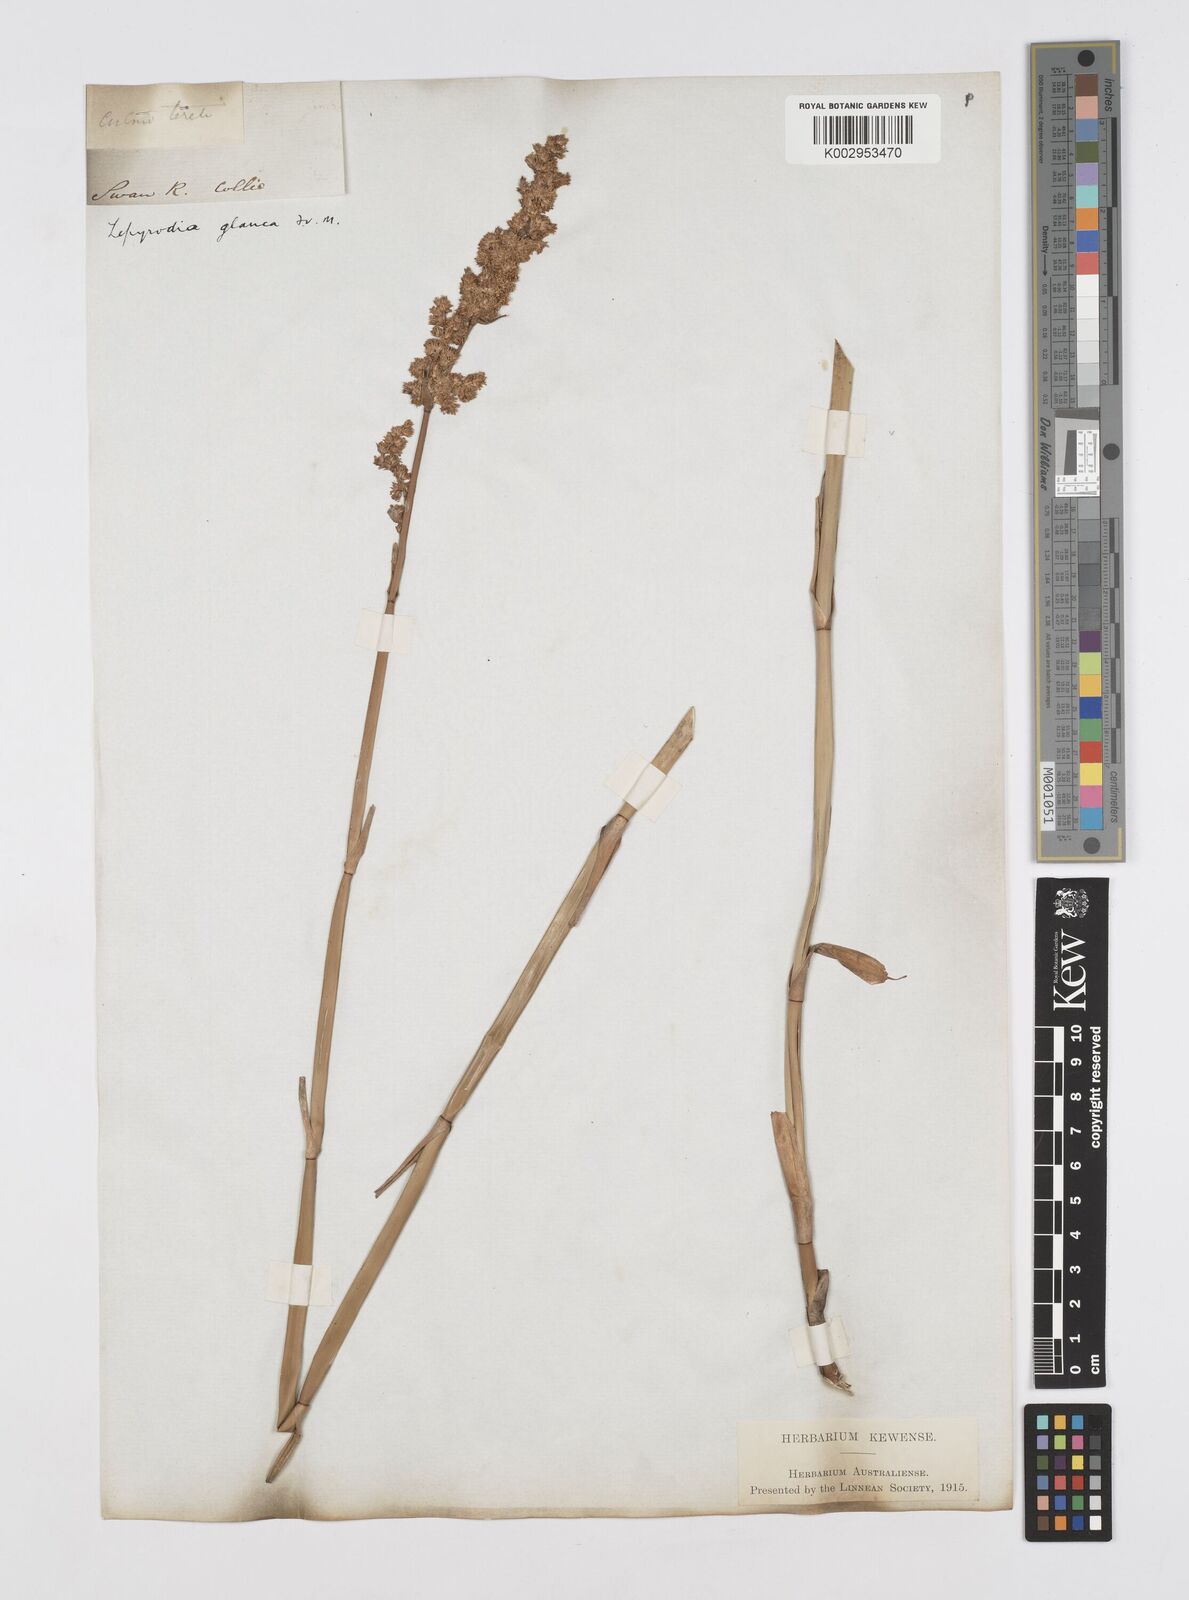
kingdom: Plantae
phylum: Tracheophyta
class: Liliopsida
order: Poales
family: Restionaceae
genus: Lepyrodia
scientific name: Lepyrodia glauca
